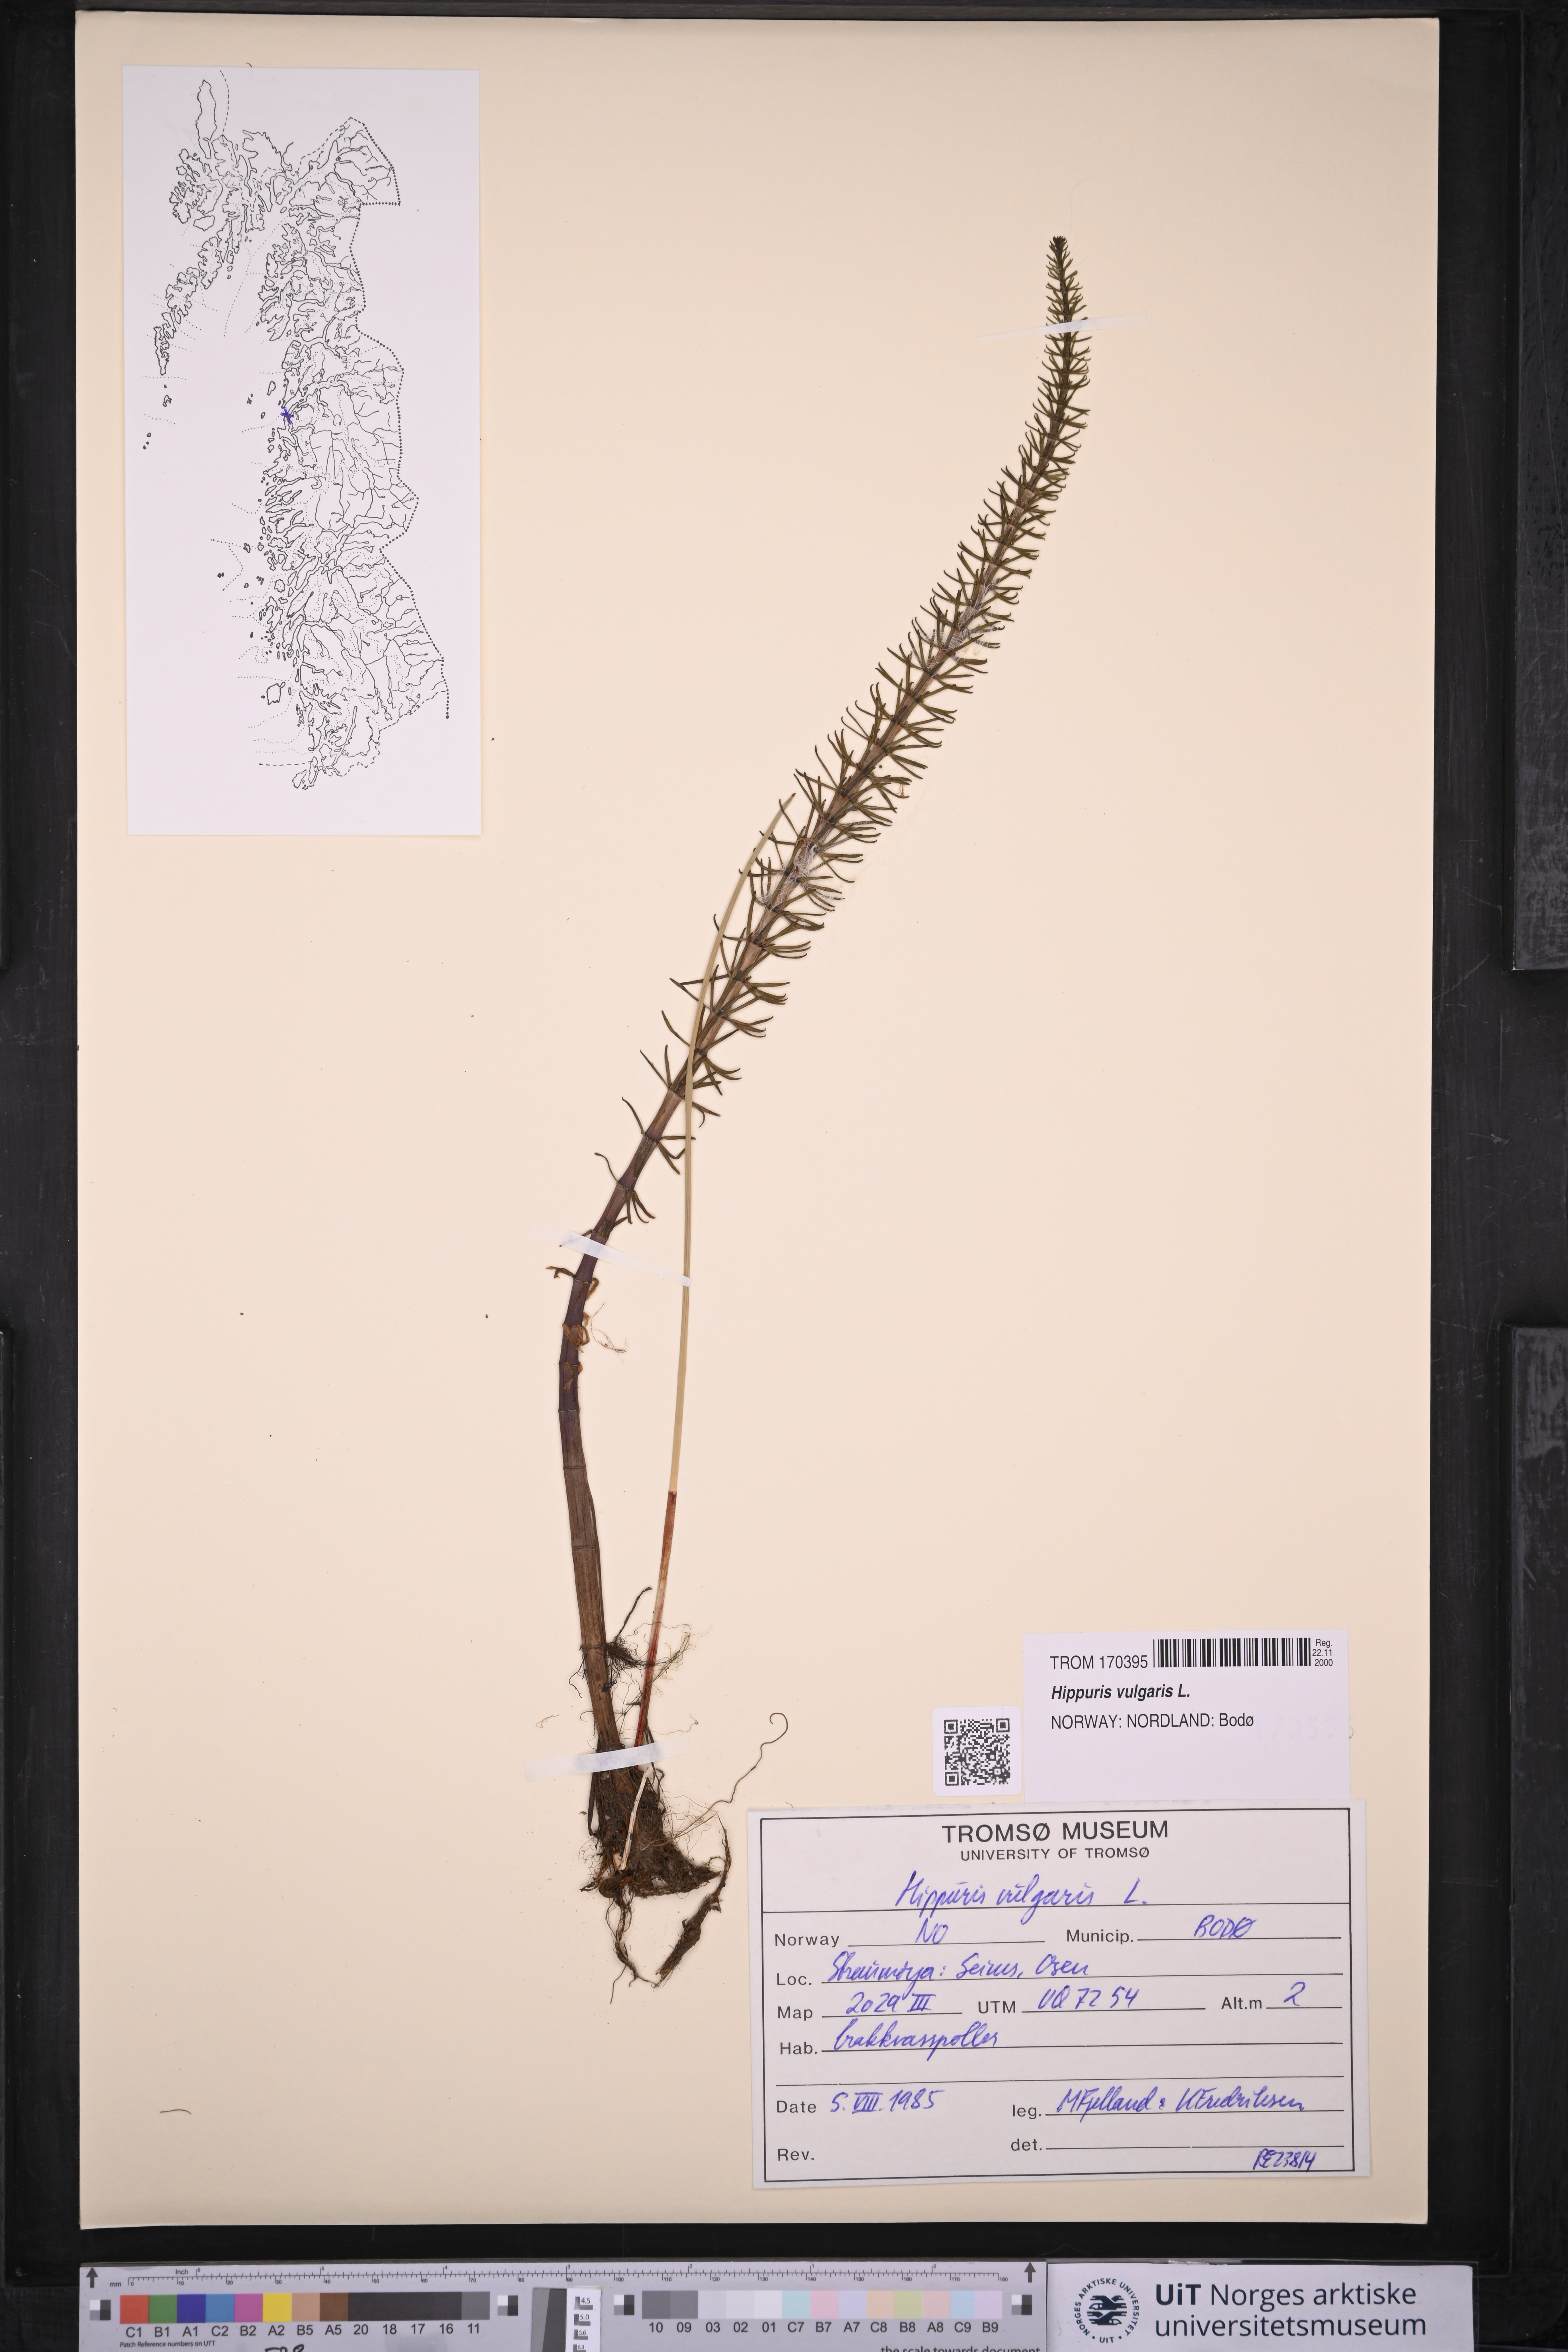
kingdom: Plantae
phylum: Tracheophyta
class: Magnoliopsida
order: Lamiales
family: Plantaginaceae
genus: Hippuris
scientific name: Hippuris vulgaris
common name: Mare's-tail
